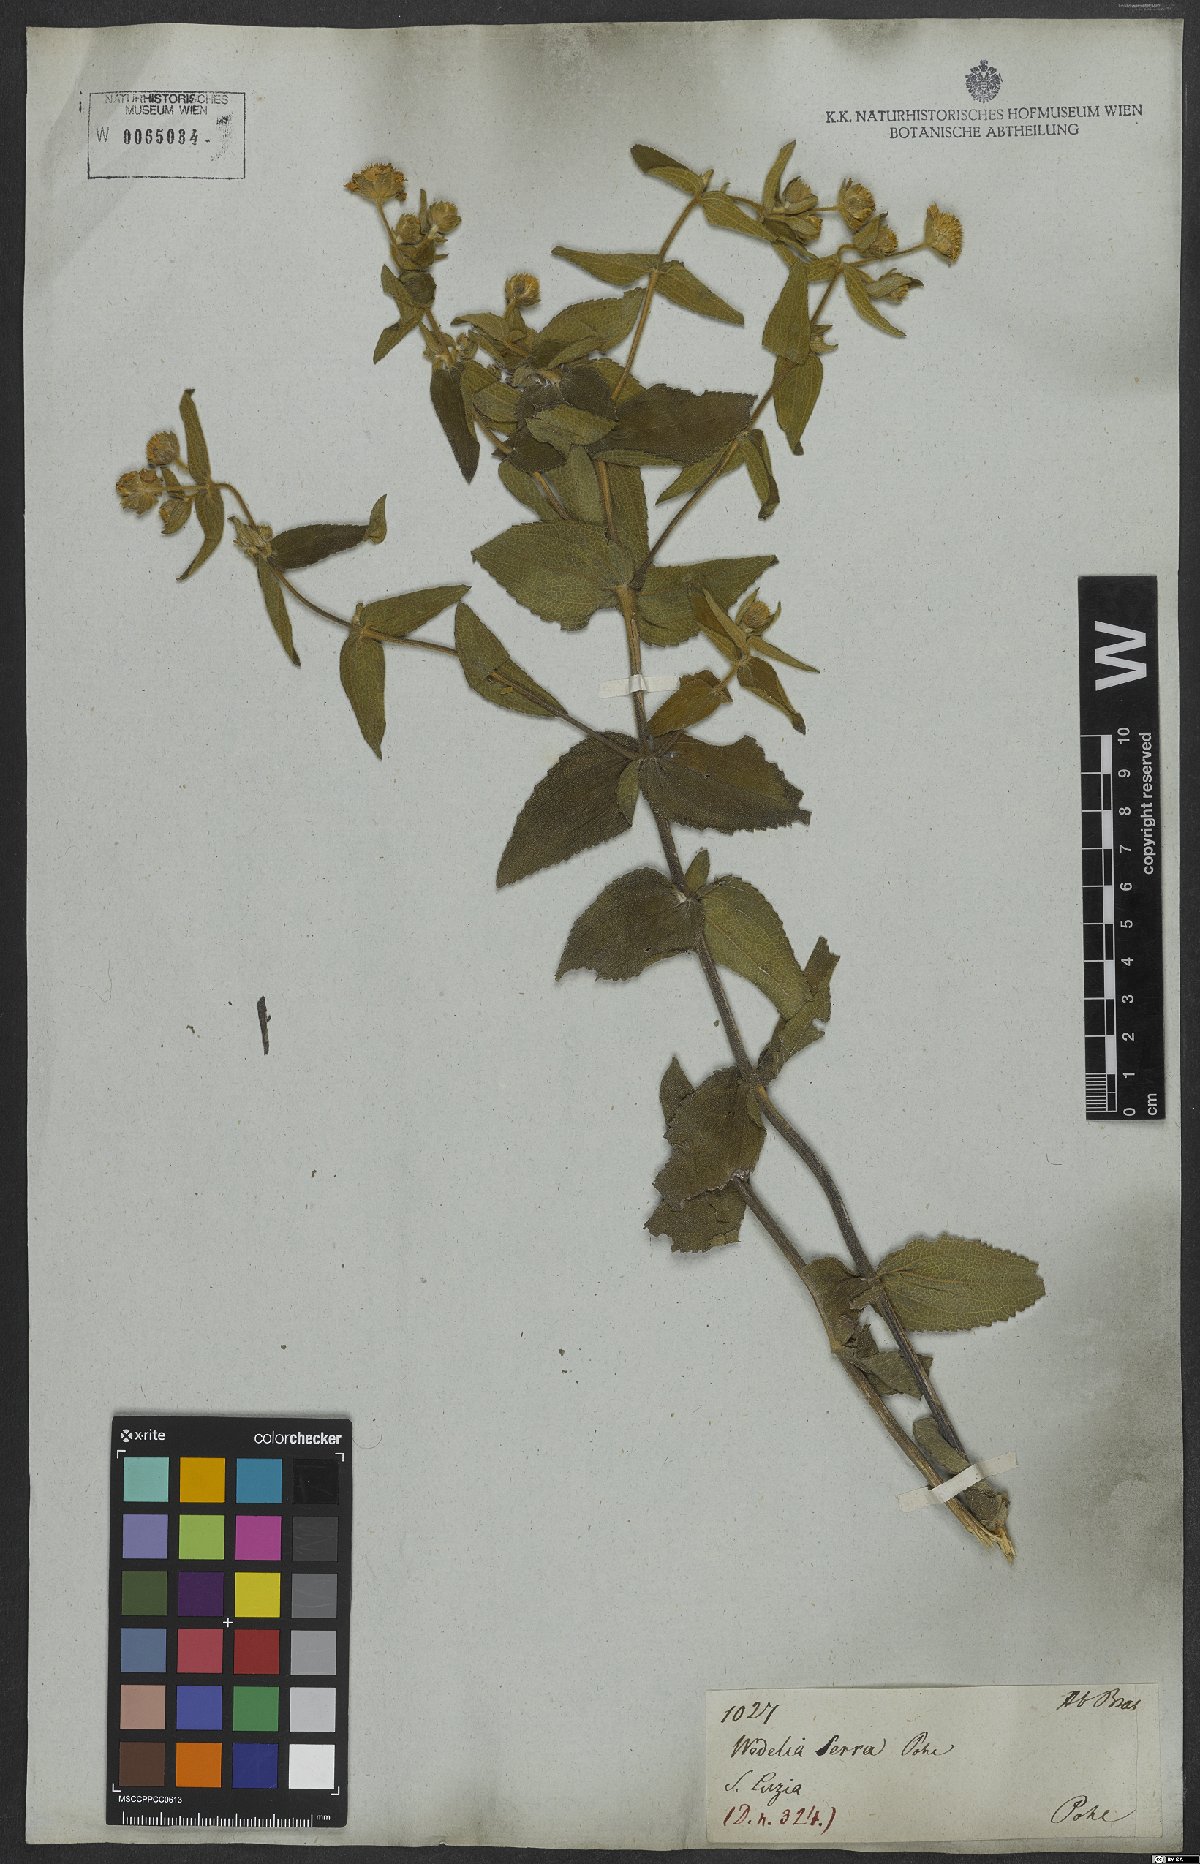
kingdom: Plantae
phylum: Tracheophyta
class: Magnoliopsida
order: Asterales
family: Asteraceae
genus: Wedelia
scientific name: Wedelia macrodonta
